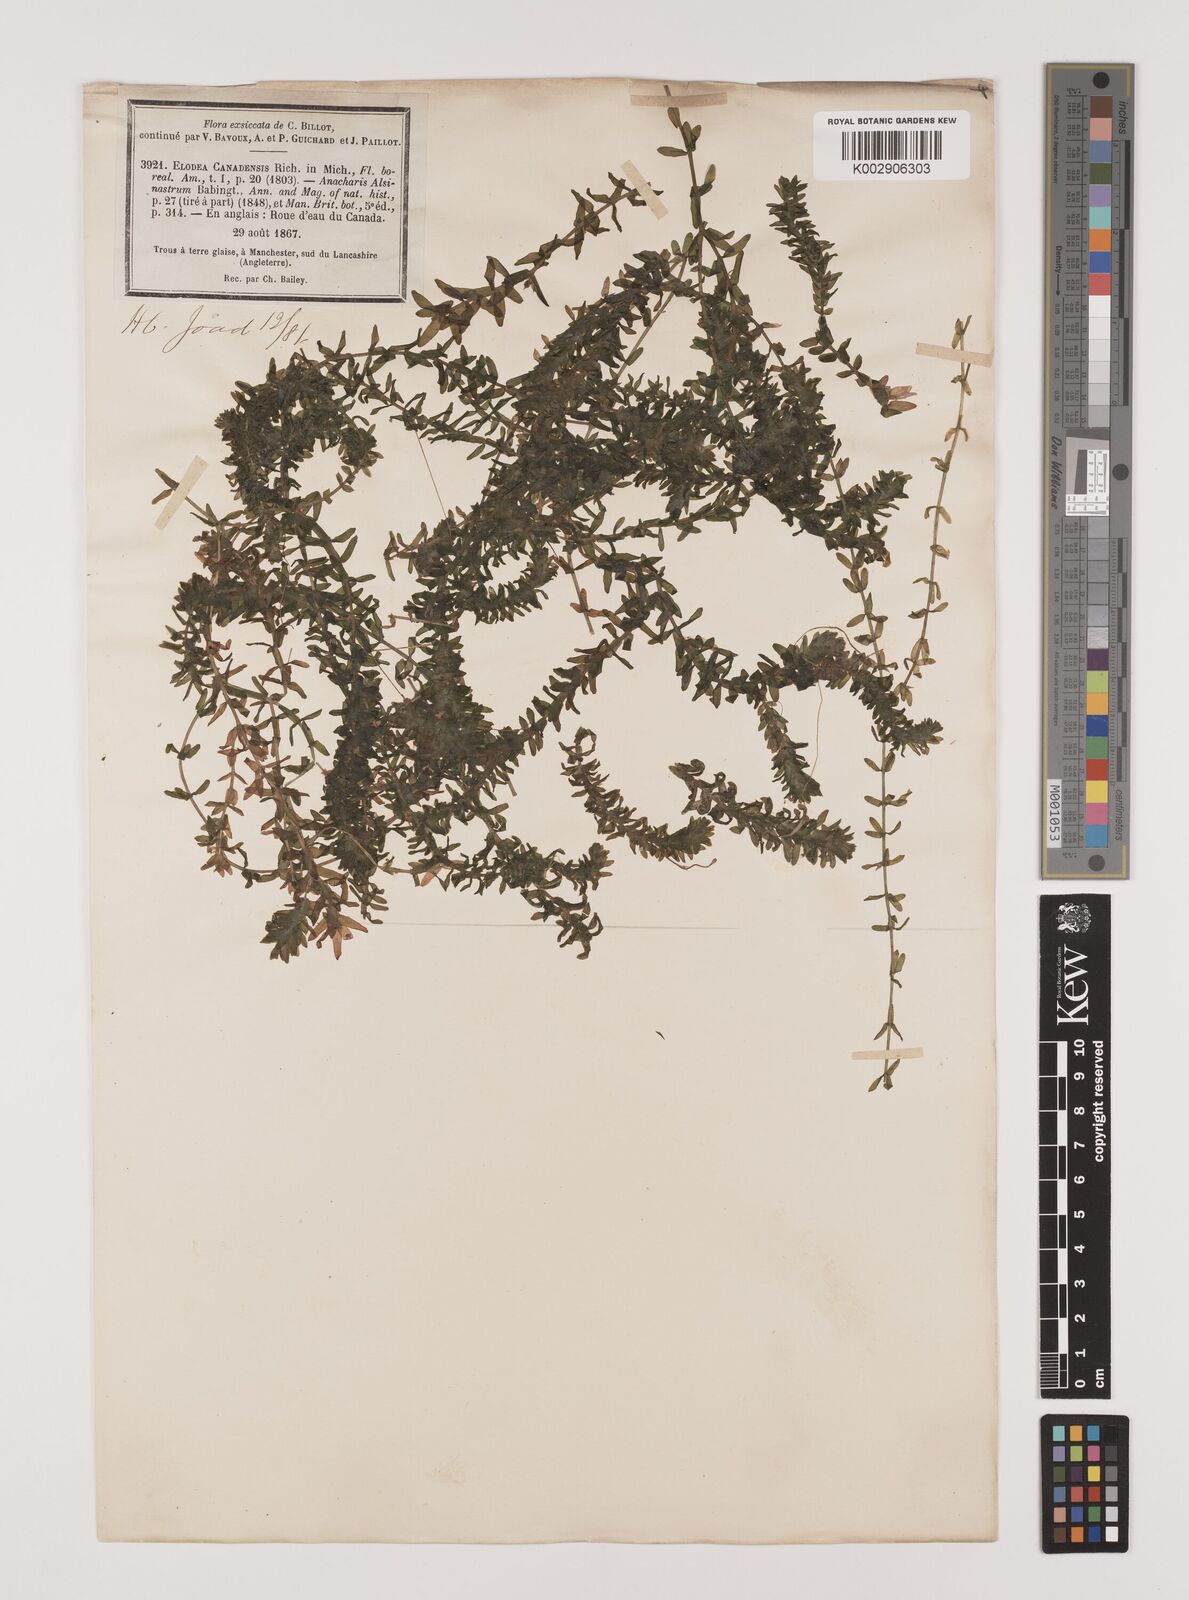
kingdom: Plantae
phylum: Tracheophyta
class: Liliopsida
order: Alismatales
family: Hydrocharitaceae
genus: Elodea
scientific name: Elodea canadensis
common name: Canadian waterweed
